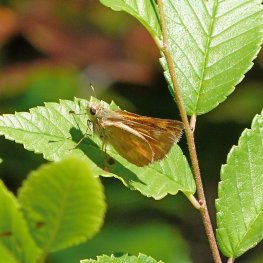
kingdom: Animalia
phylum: Arthropoda
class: Insecta
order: Lepidoptera
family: Hesperiidae
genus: Ochlodes
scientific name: Ochlodes sylvanoides
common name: Woodland Skipper
